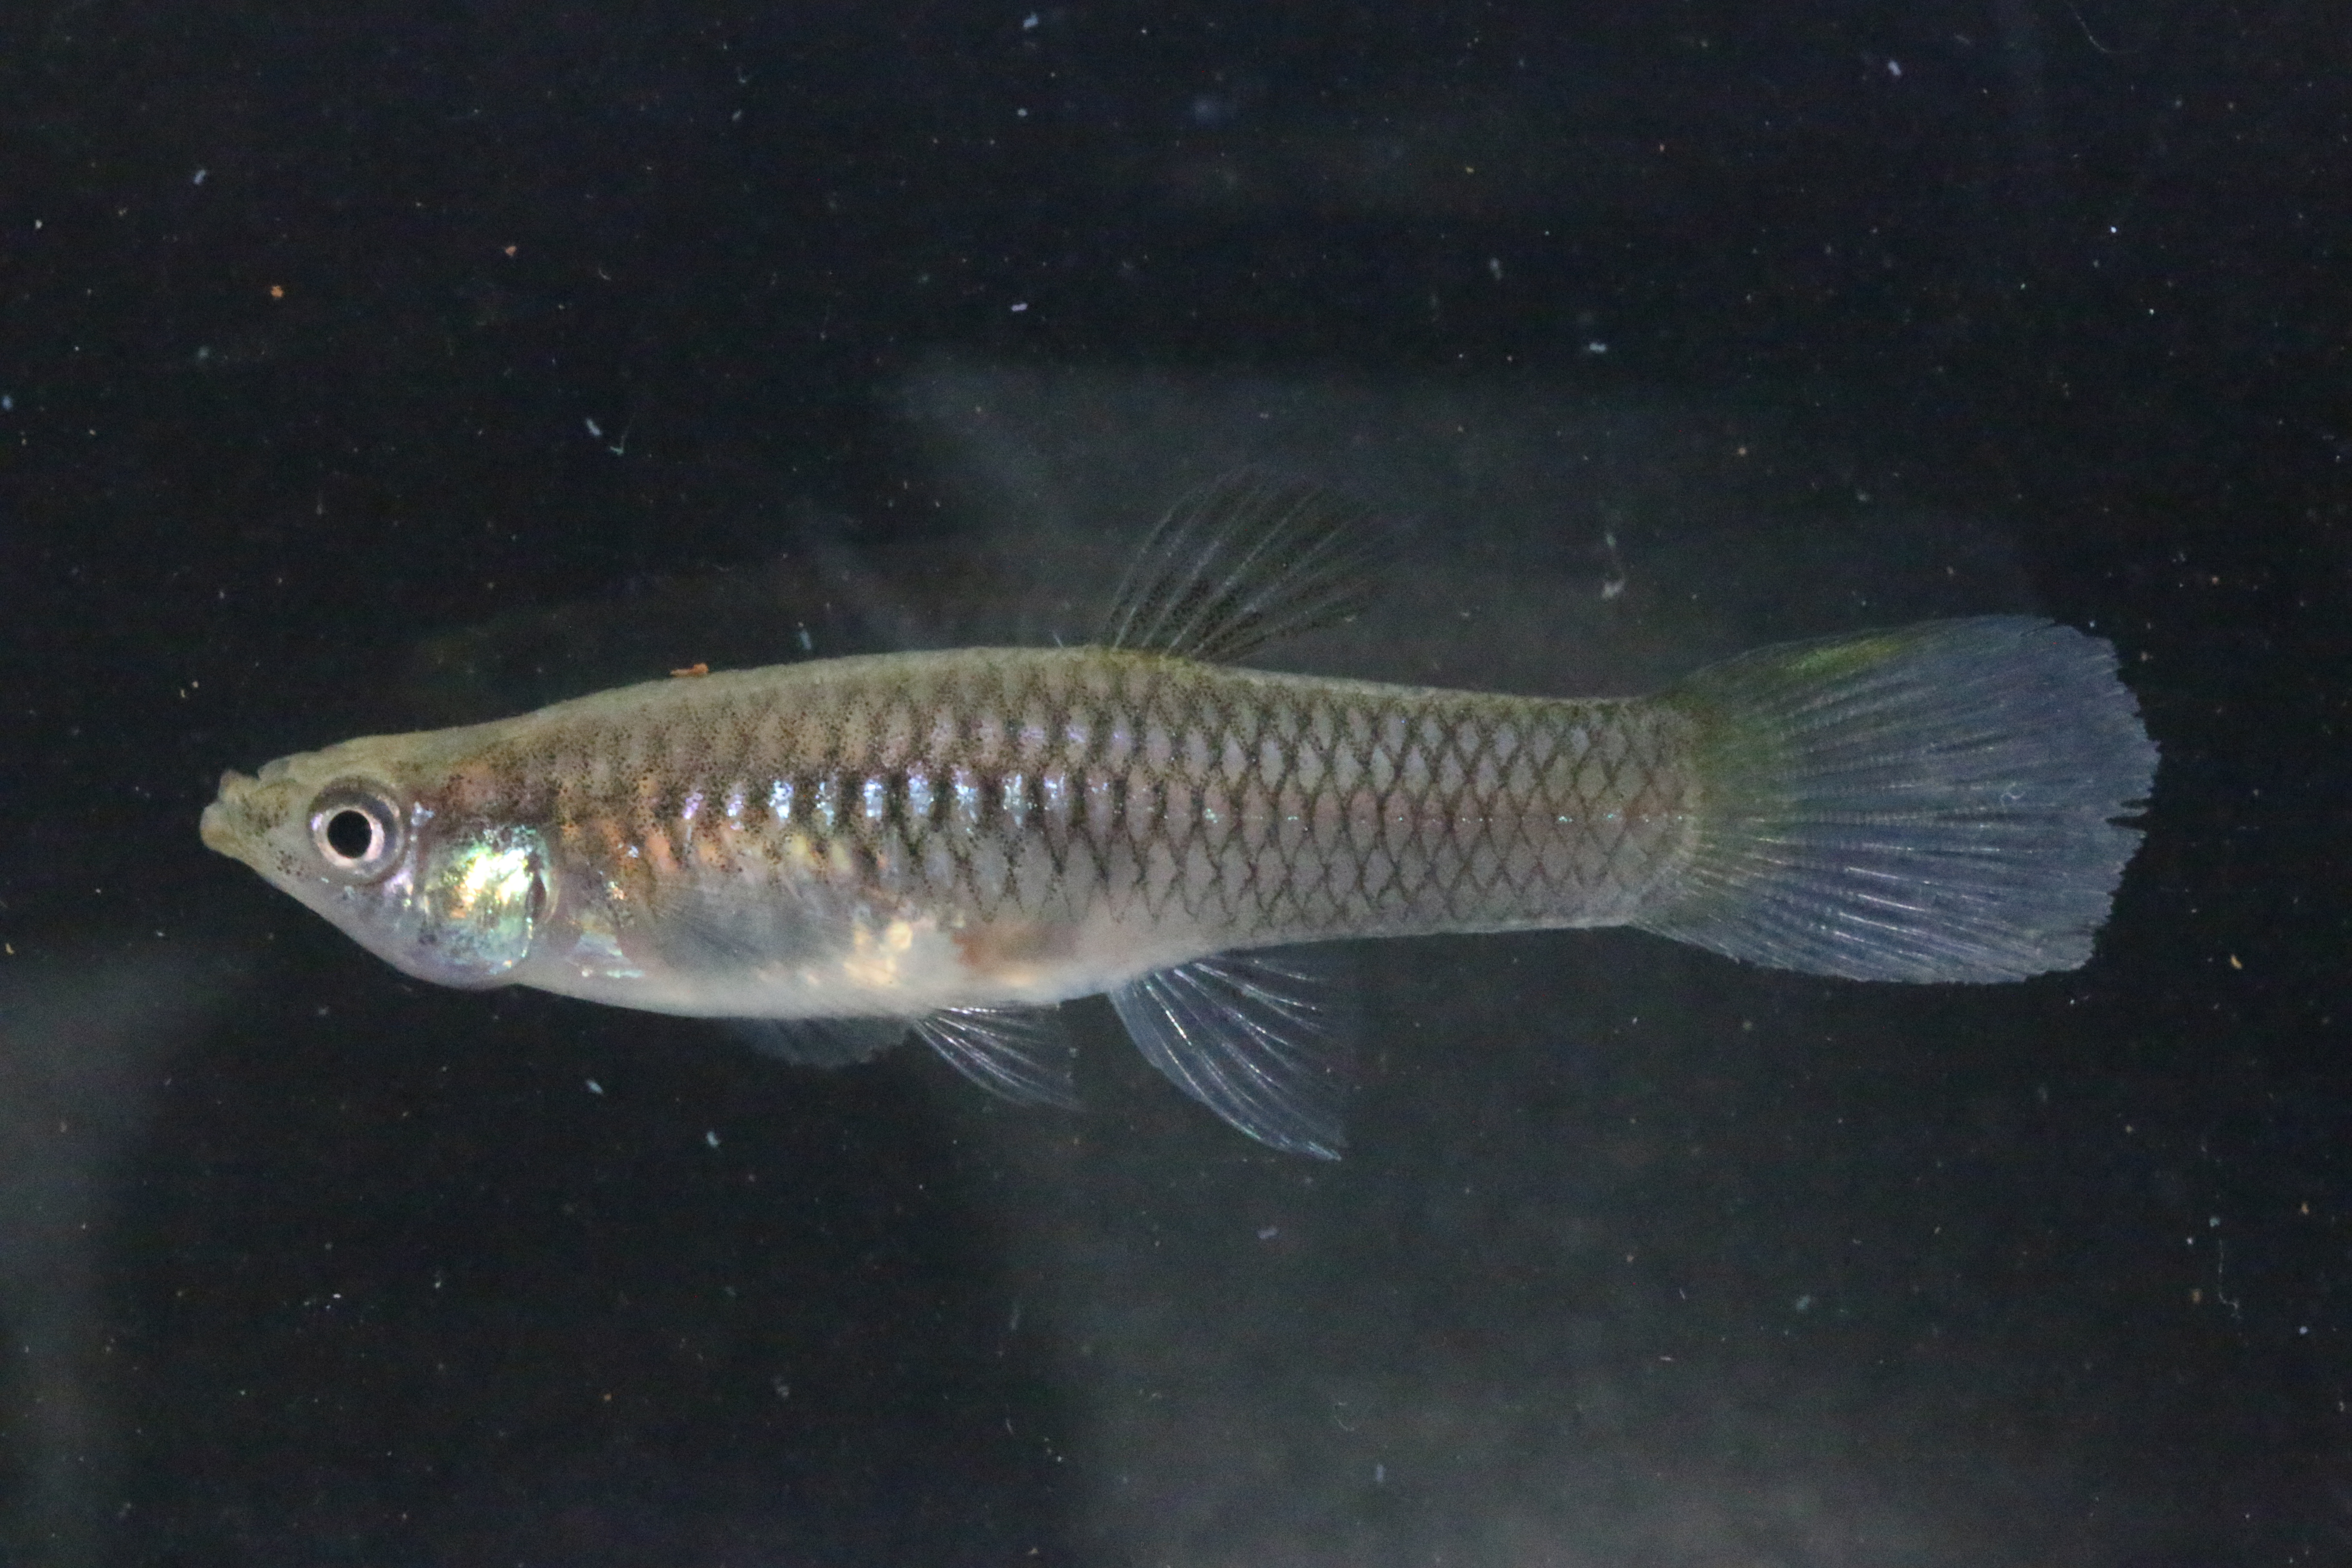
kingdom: Animalia
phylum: Chordata
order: Cyprinodontiformes
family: Poeciliidae
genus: Poecilia
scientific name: Poecilia reticulata
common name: Guppy
